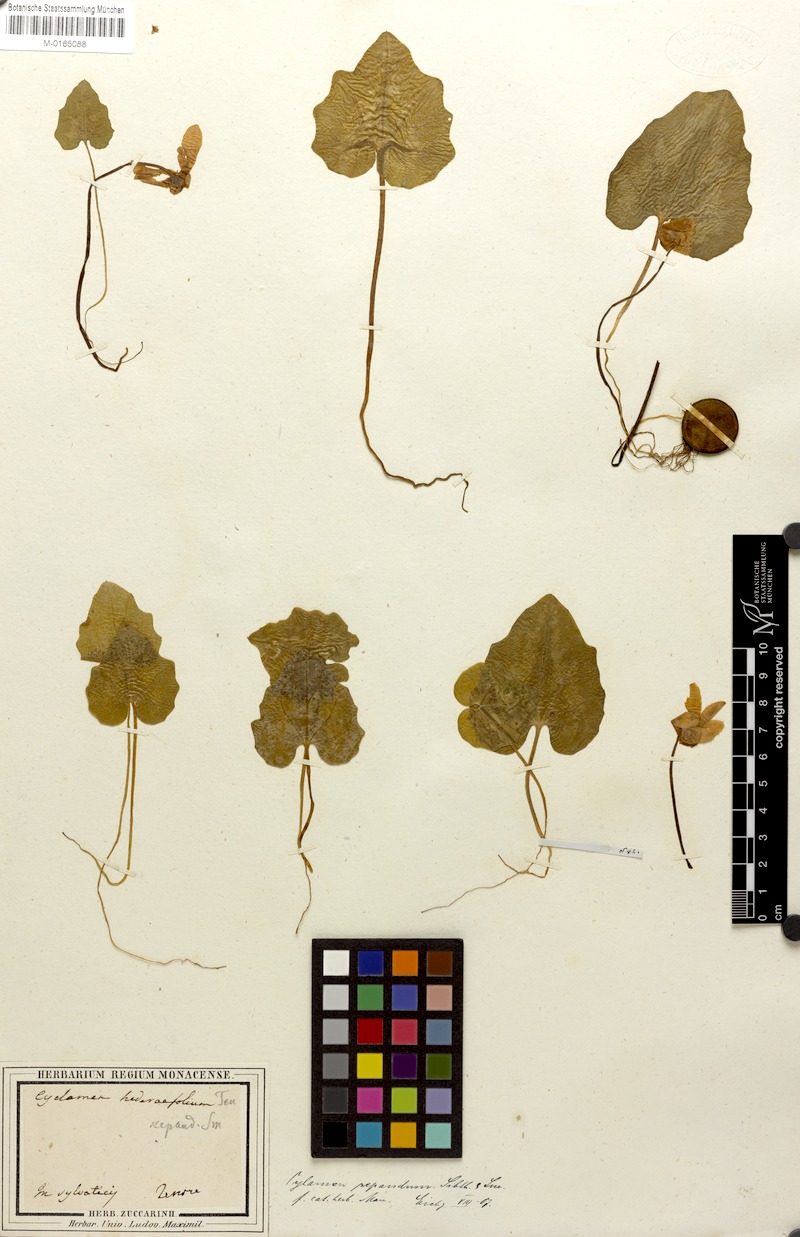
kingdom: Plantae
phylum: Tracheophyta
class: Magnoliopsida
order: Ericales
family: Primulaceae
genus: Cyclamen
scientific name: Cyclamen repandum
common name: Spring sowbread
